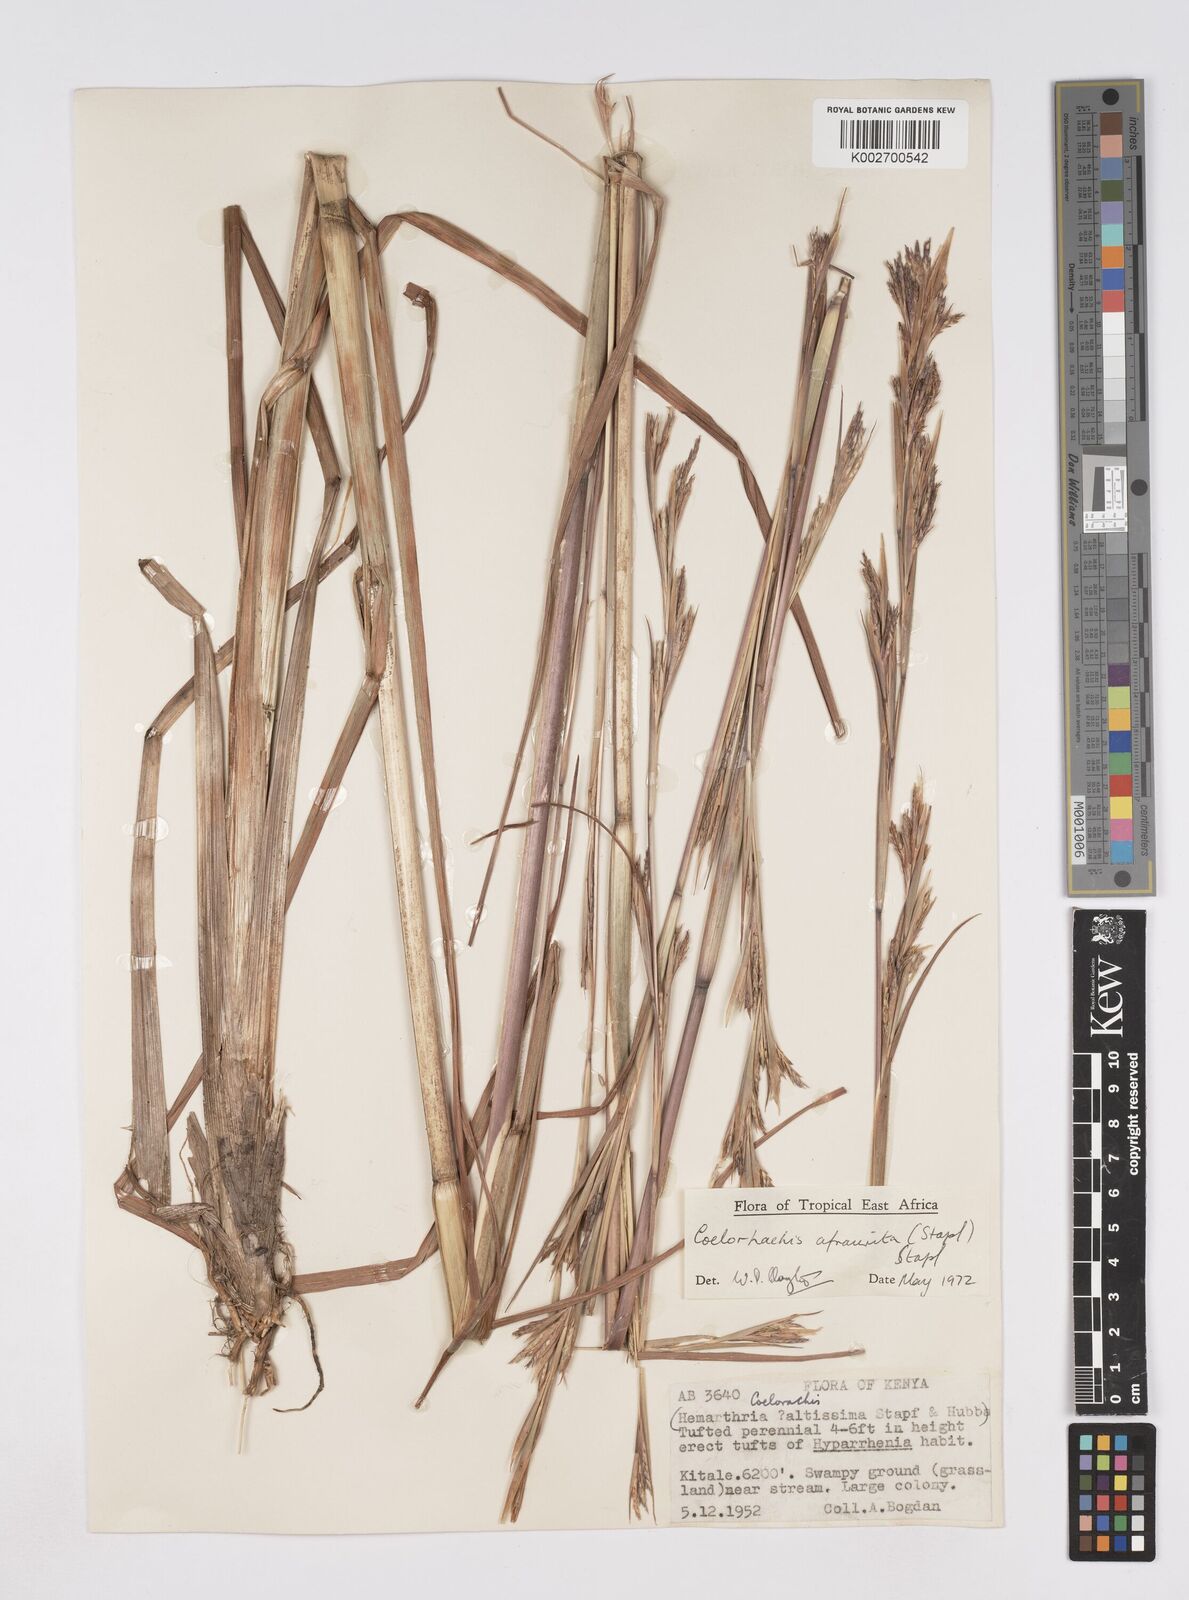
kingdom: Plantae
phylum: Tracheophyta
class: Liliopsida
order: Poales
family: Poaceae
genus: Rottboellia
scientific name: Rottboellia afraurita
